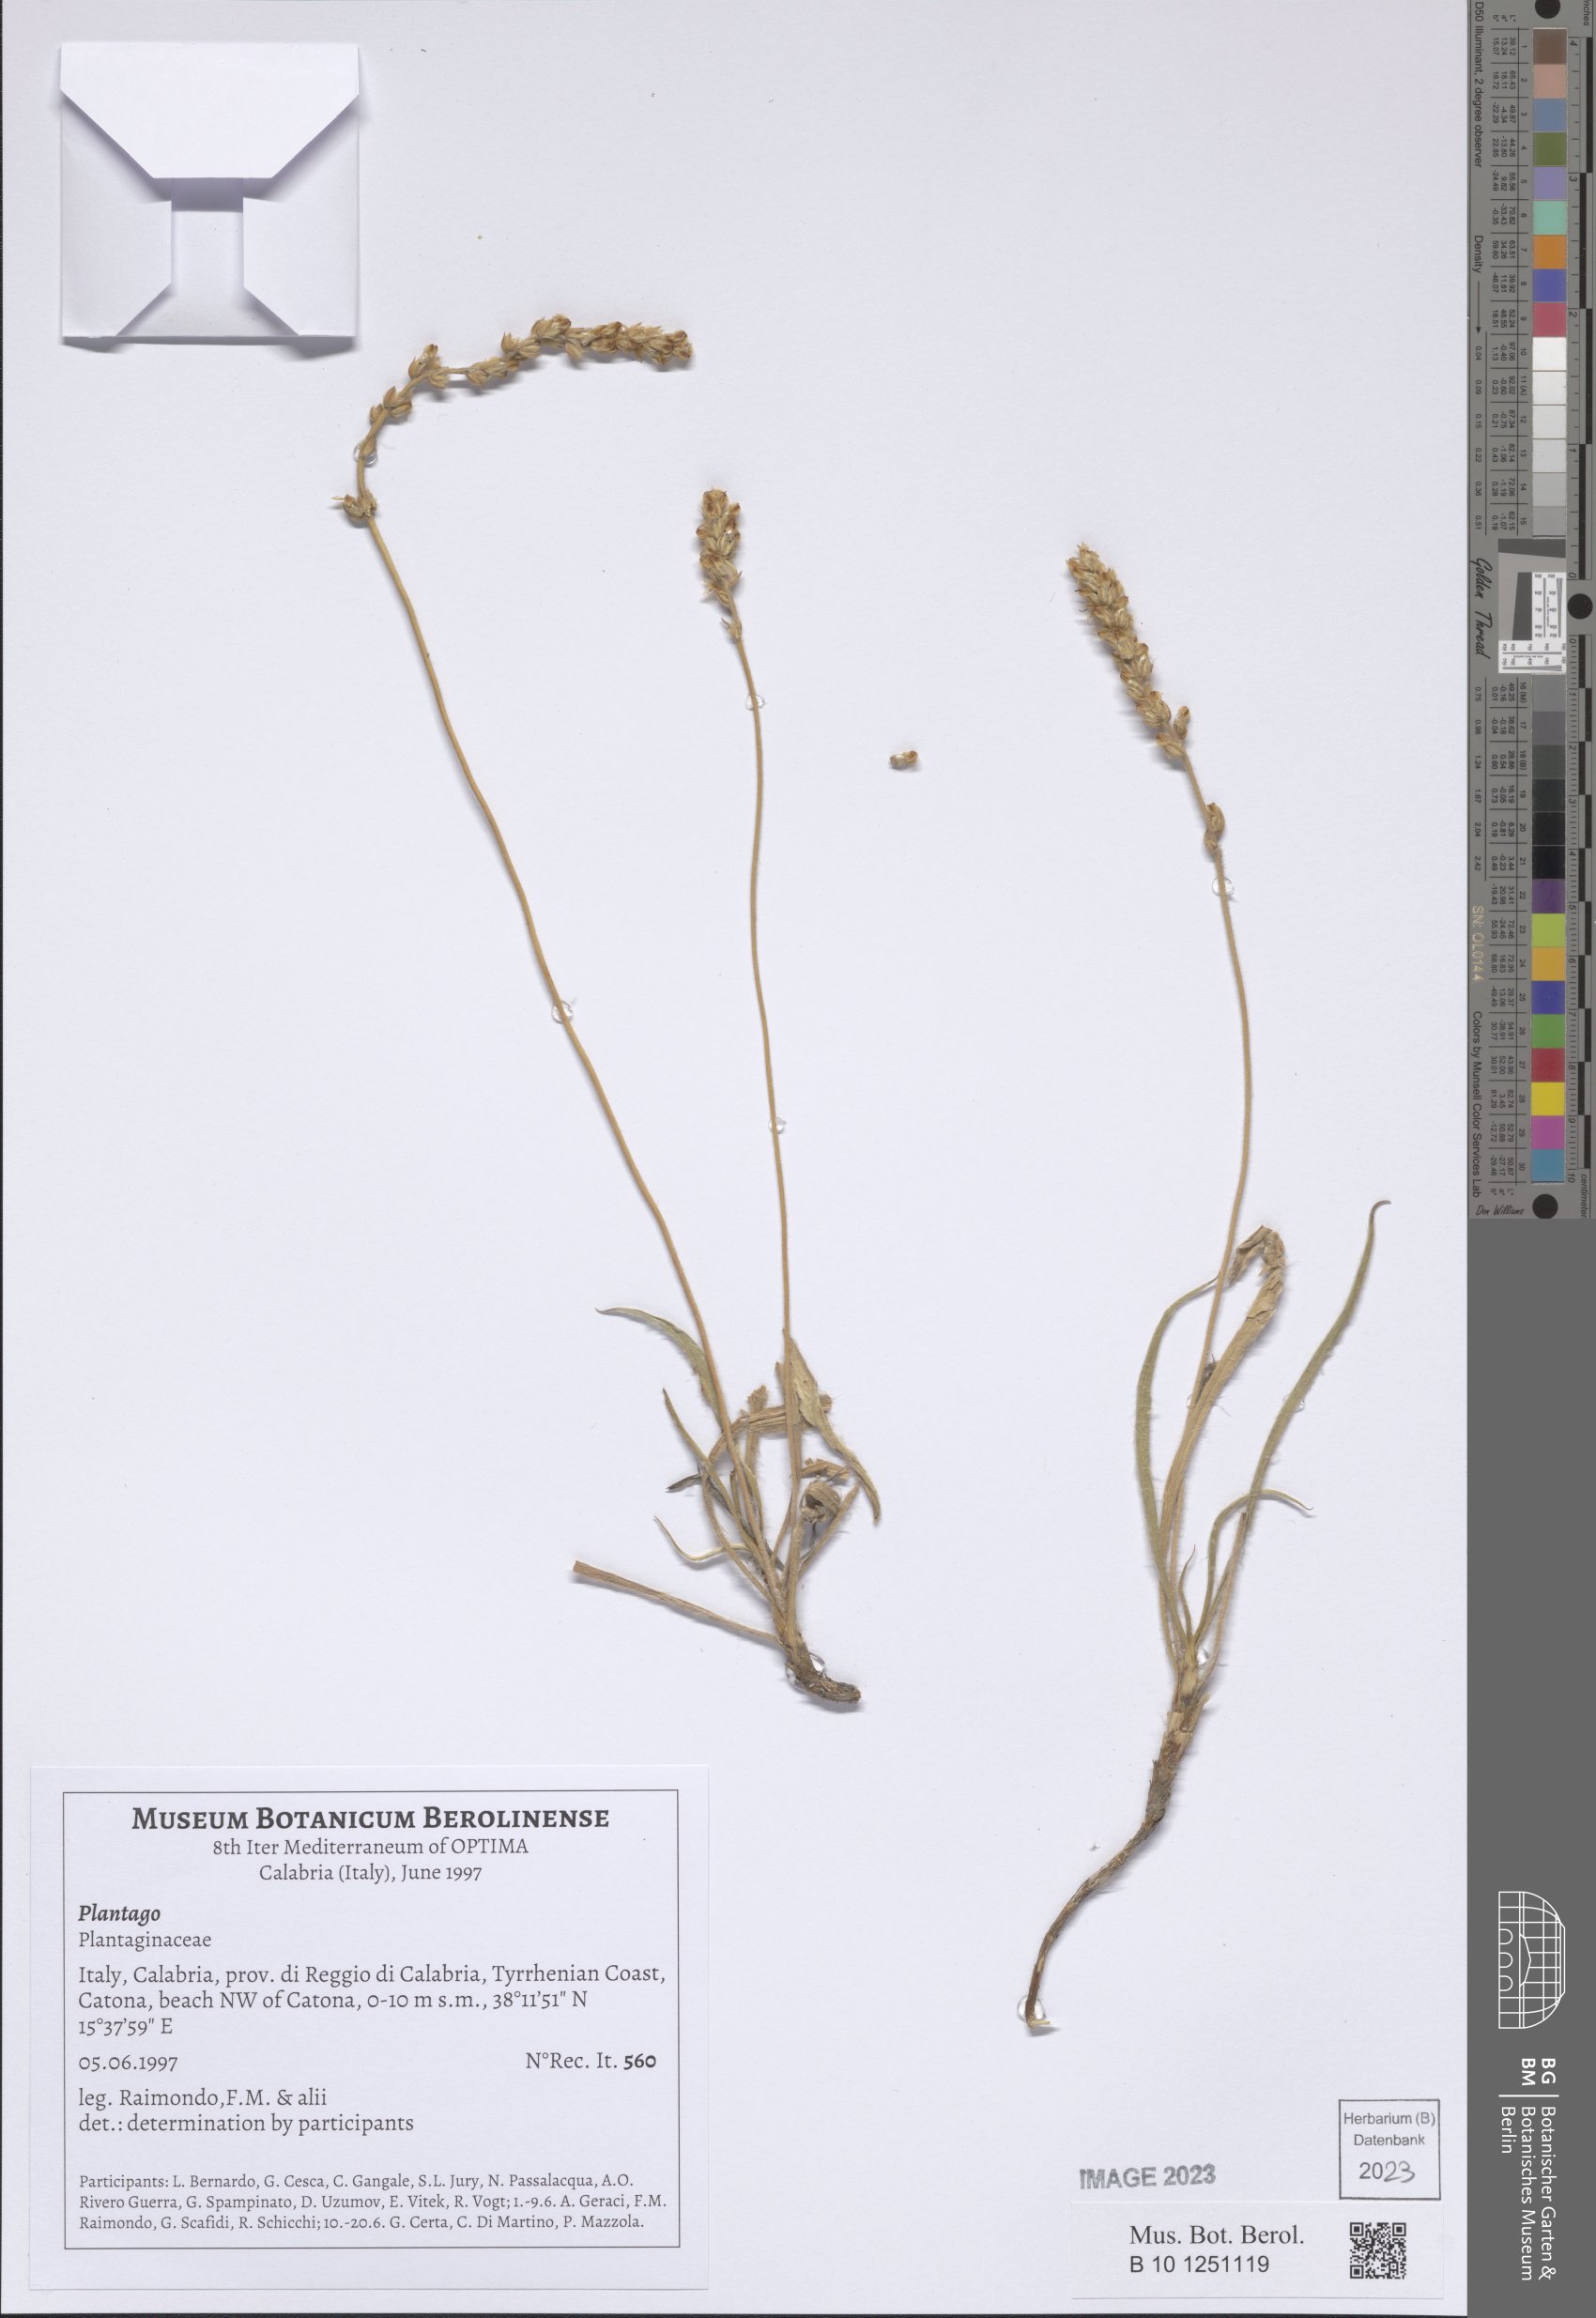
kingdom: Plantae
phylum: Tracheophyta
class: Magnoliopsida
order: Lamiales
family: Plantaginaceae
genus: Plantago
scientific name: Plantago
